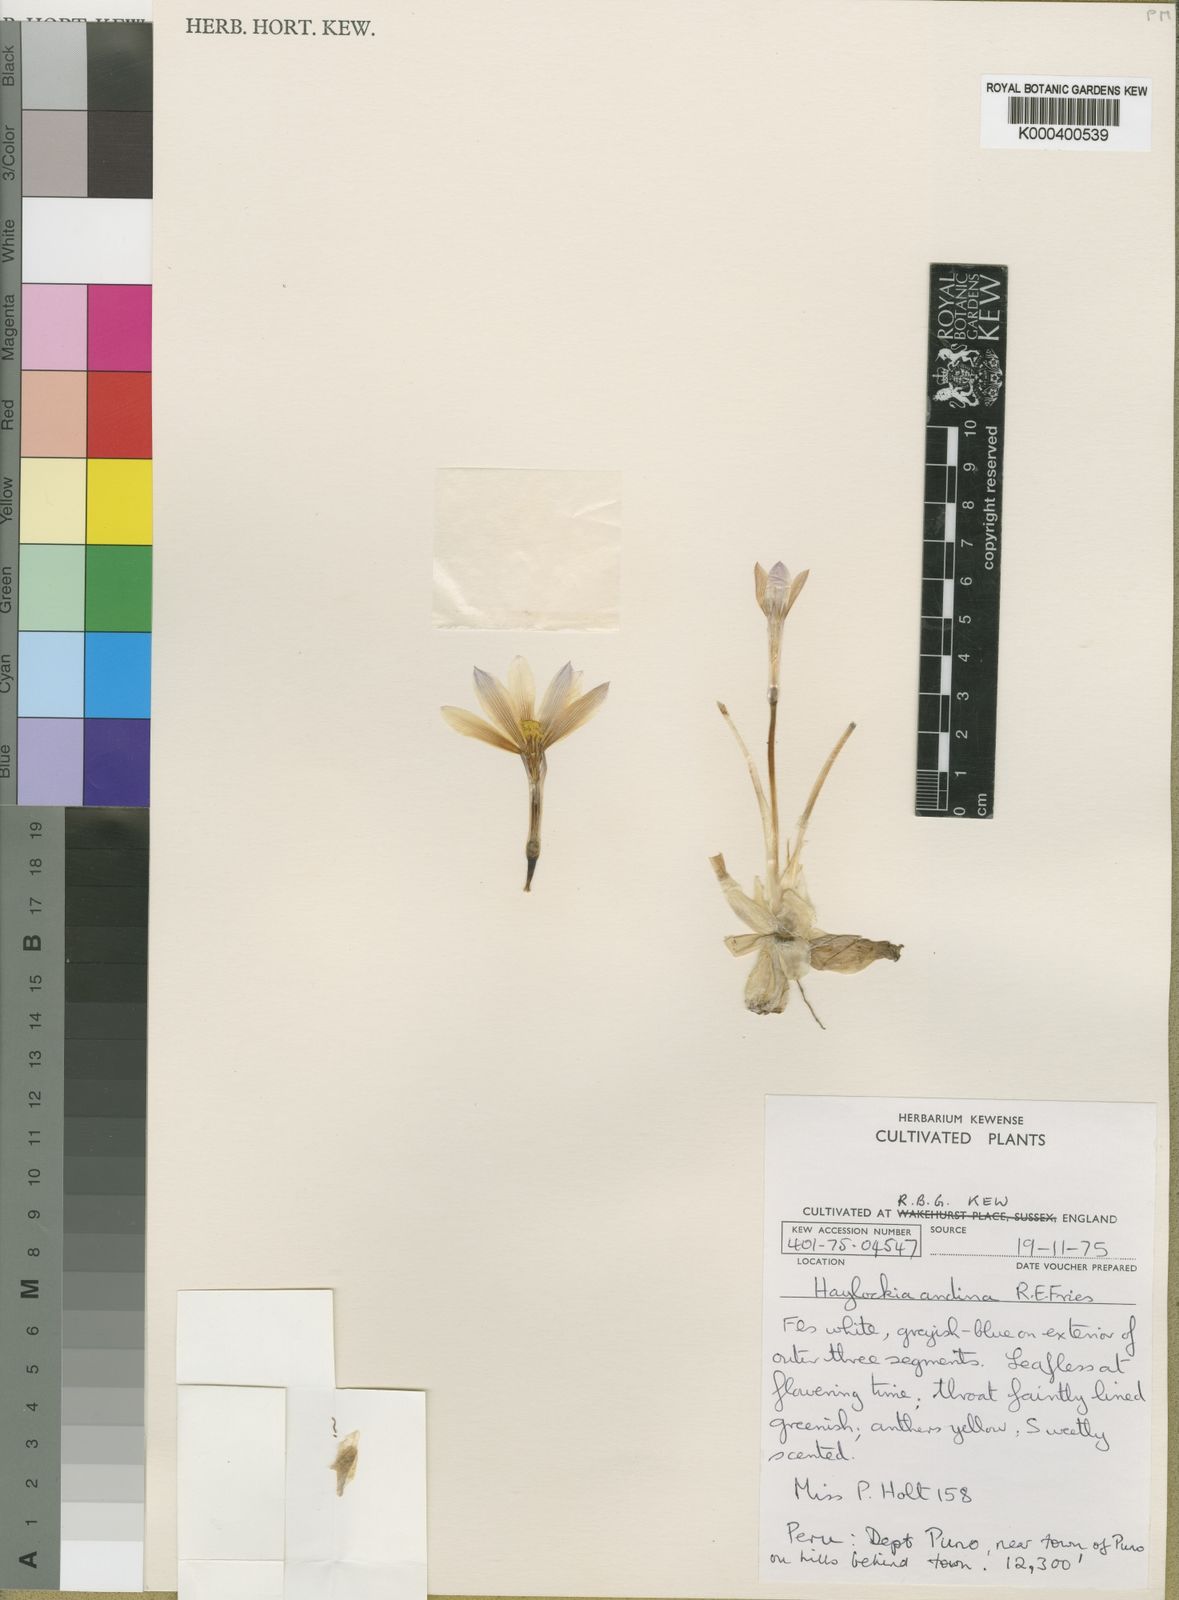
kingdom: Plantae
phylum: Tracheophyta
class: Liliopsida
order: Asparagales
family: Amaryllidaceae
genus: Zephyranthes
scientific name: Zephyranthes andina
